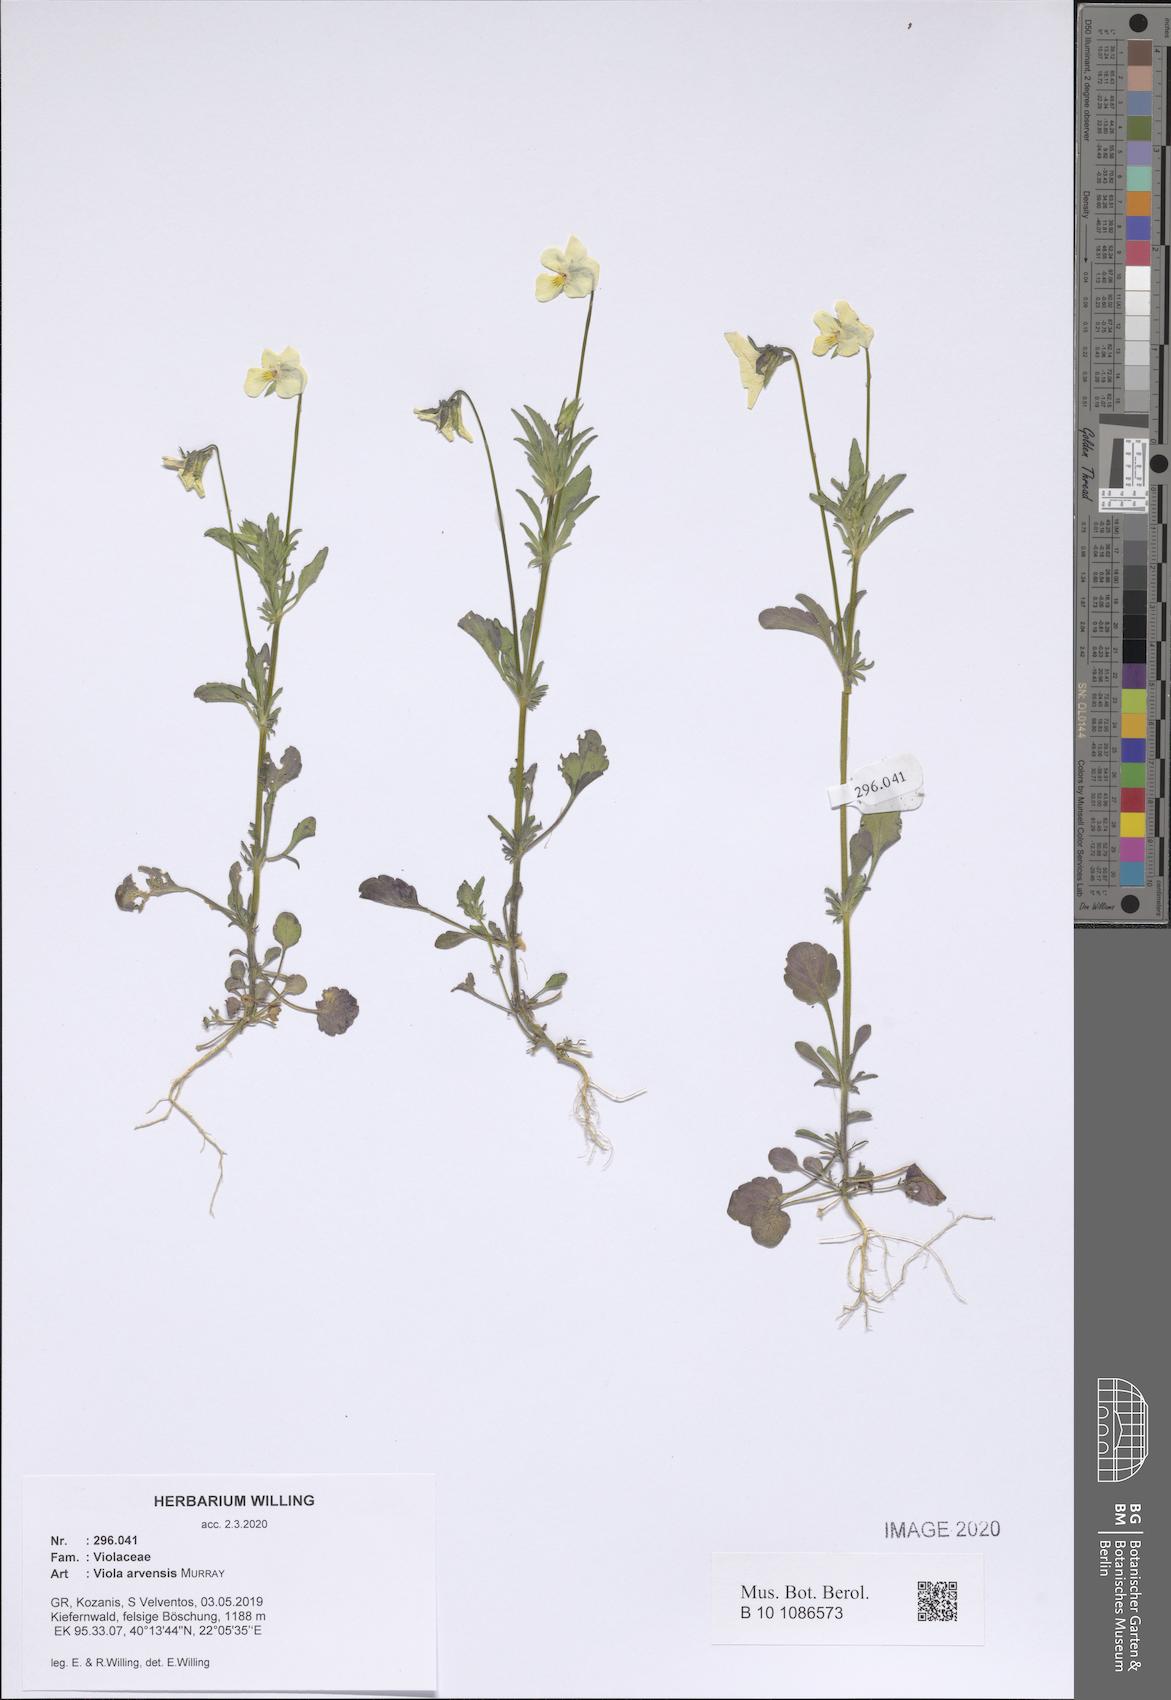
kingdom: Plantae
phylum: Tracheophyta
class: Magnoliopsida
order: Malpighiales
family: Violaceae
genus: Viola
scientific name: Viola arvensis
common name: Field pansy
